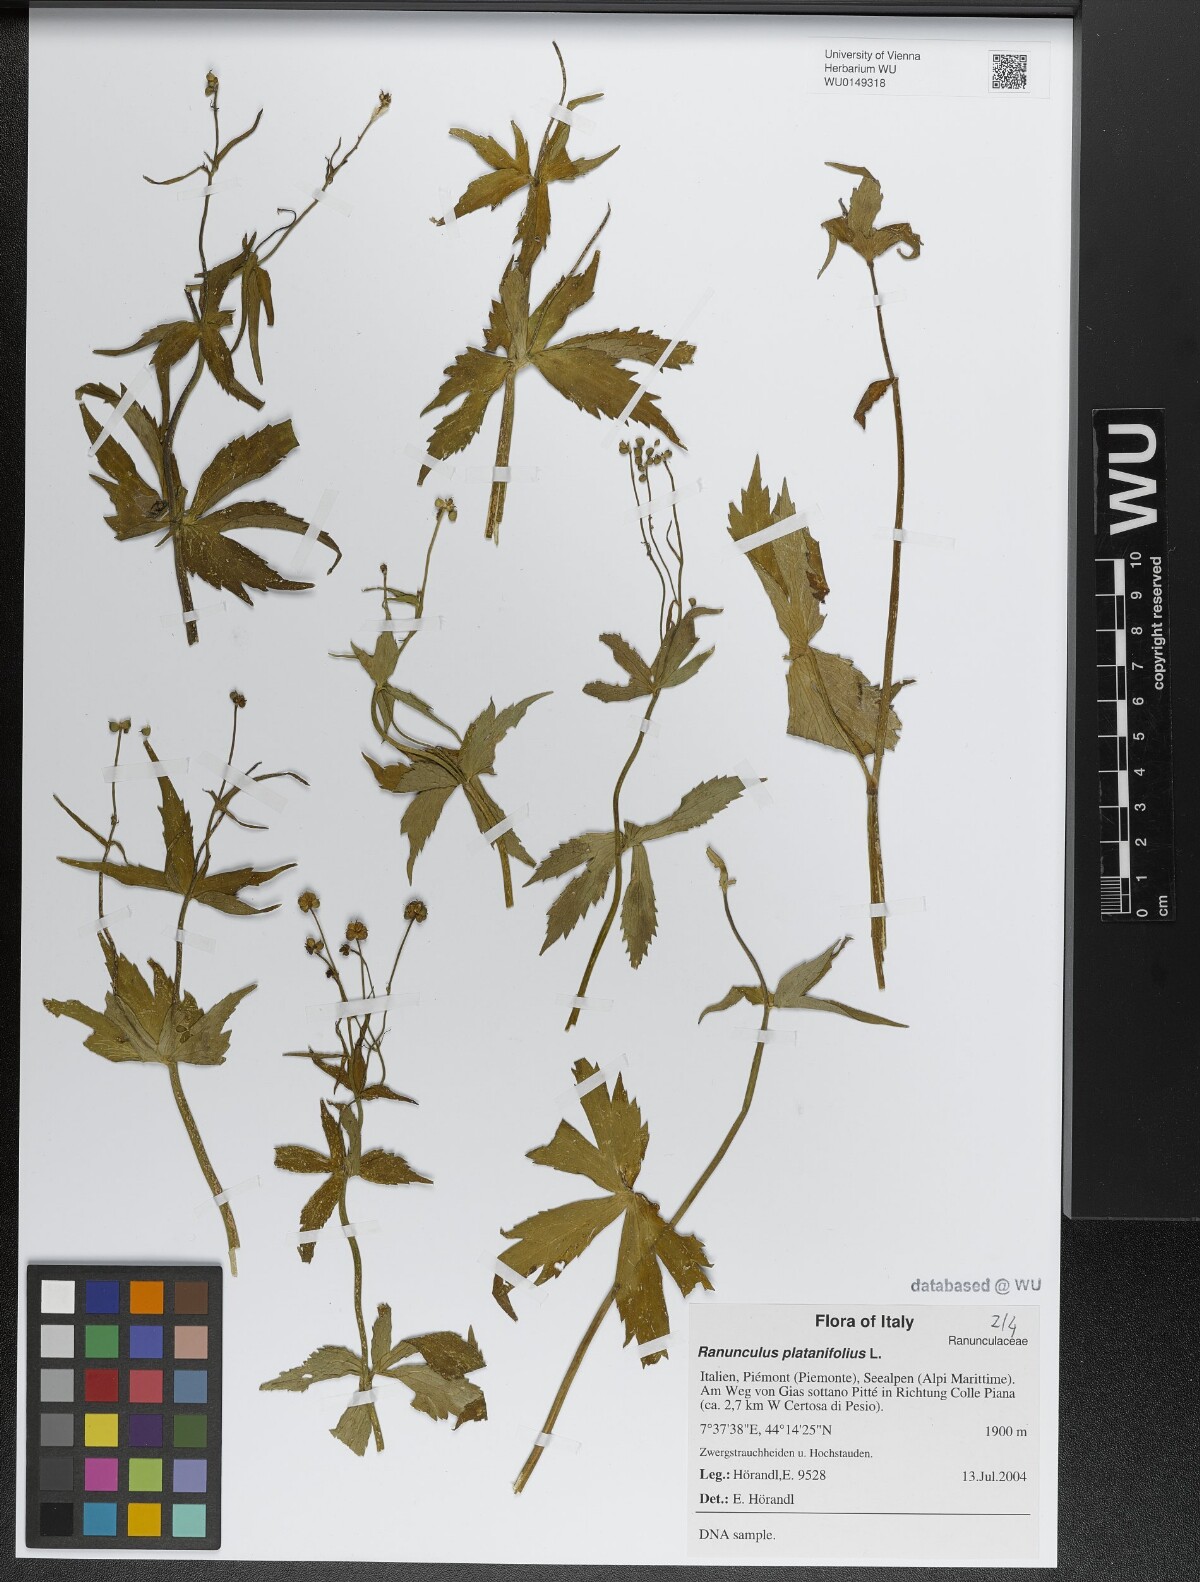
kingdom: Plantae
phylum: Tracheophyta
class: Magnoliopsida
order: Ranunculales
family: Ranunculaceae
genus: Ranunculus
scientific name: Ranunculus platanifolius
